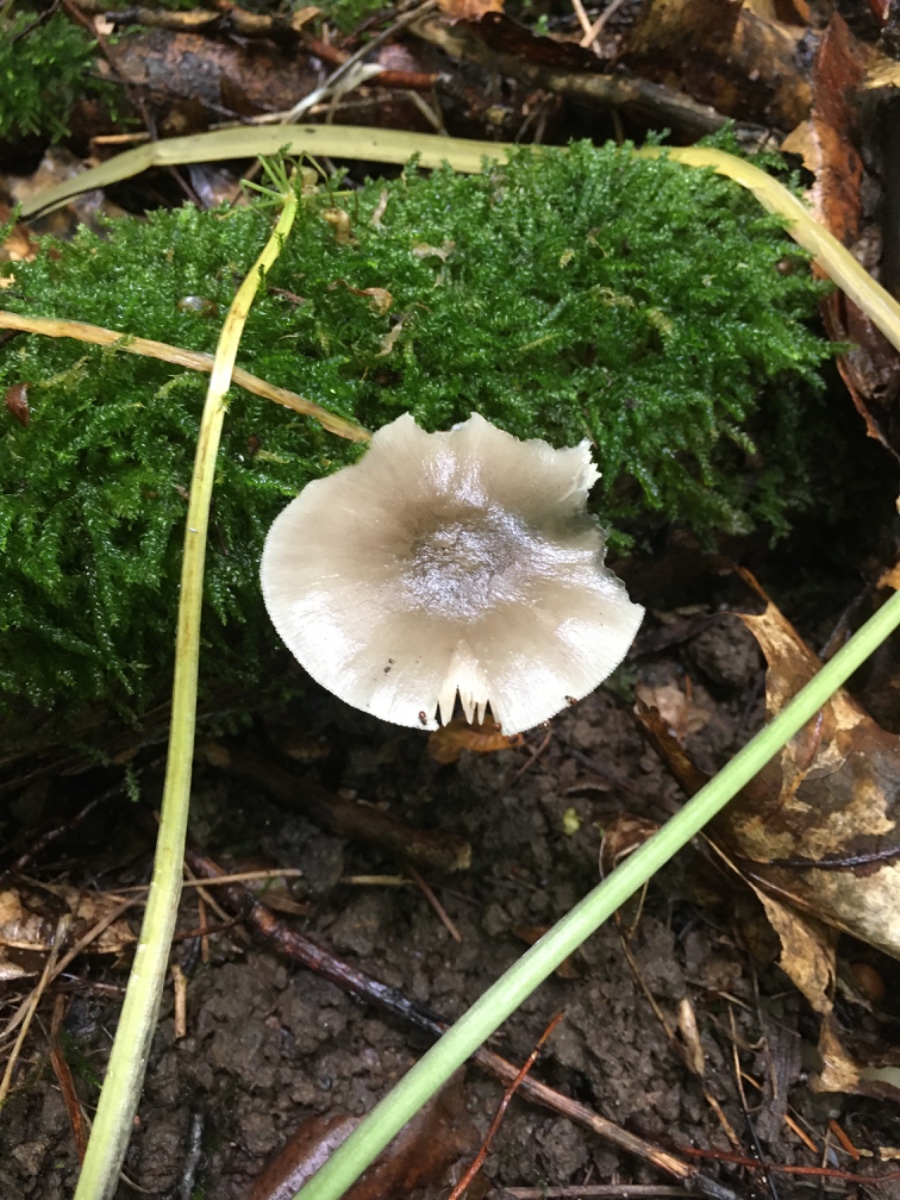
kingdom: Fungi
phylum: Basidiomycota
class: Agaricomycetes
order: Agaricales
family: Pluteaceae
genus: Pluteus
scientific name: Pluteus salicinus
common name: stiv skærmhat
